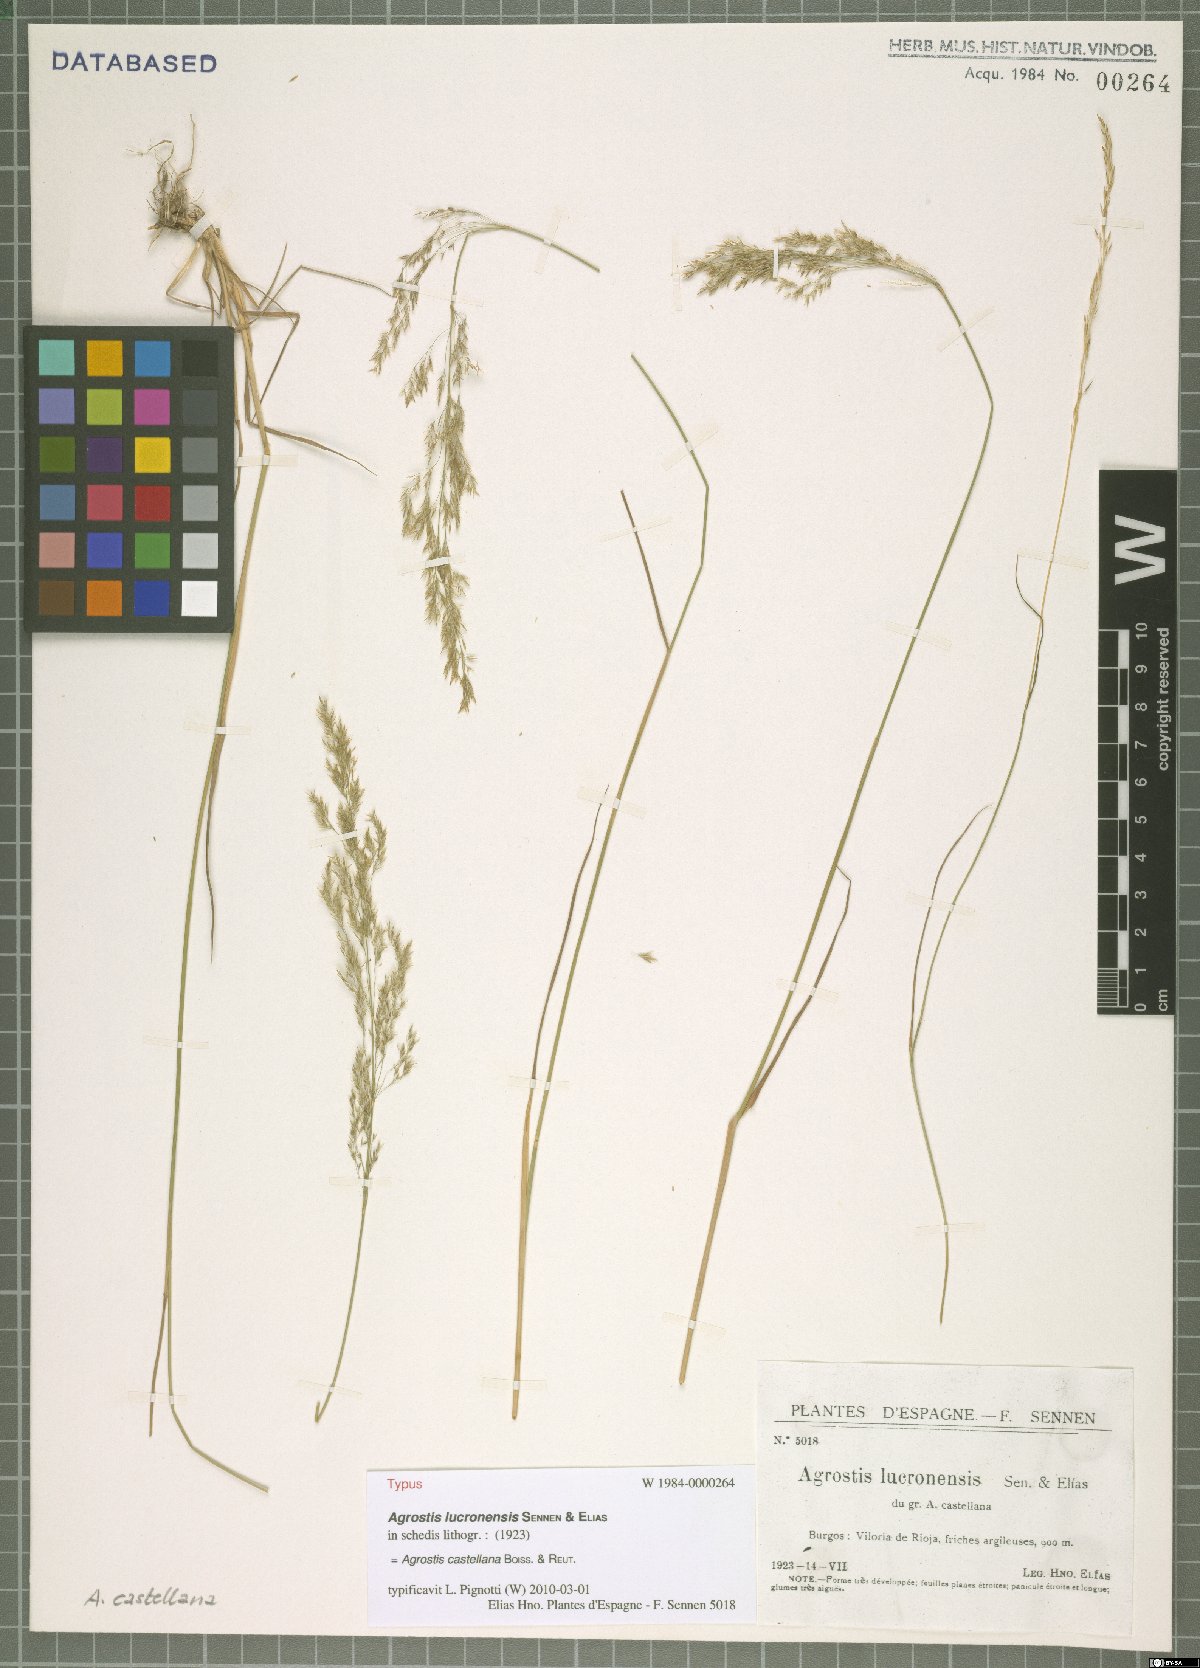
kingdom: Plantae
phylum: Tracheophyta
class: Liliopsida
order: Poales
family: Poaceae
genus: Agrostis
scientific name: Agrostis castellana
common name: Highland bent
